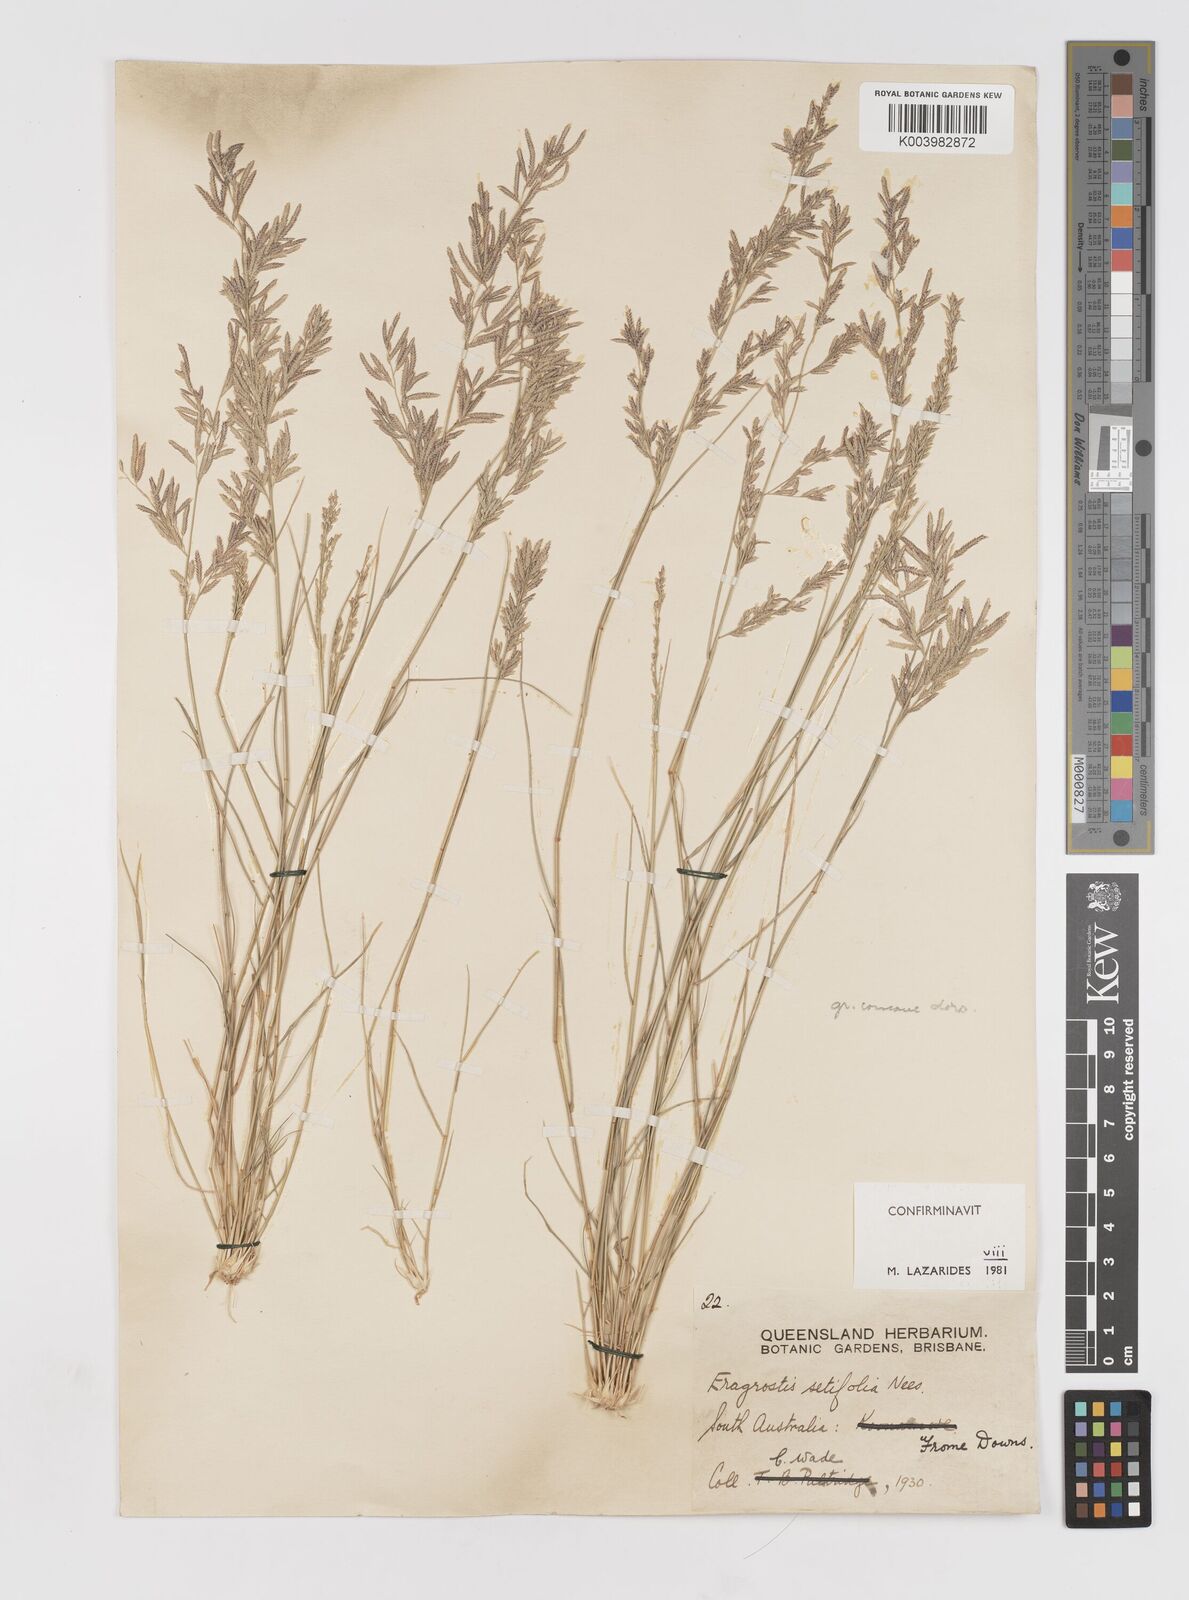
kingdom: Plantae
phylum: Tracheophyta
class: Liliopsida
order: Poales
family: Poaceae
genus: Eragrostis
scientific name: Eragrostis setifolia
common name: Bristleleaf lovegrass
